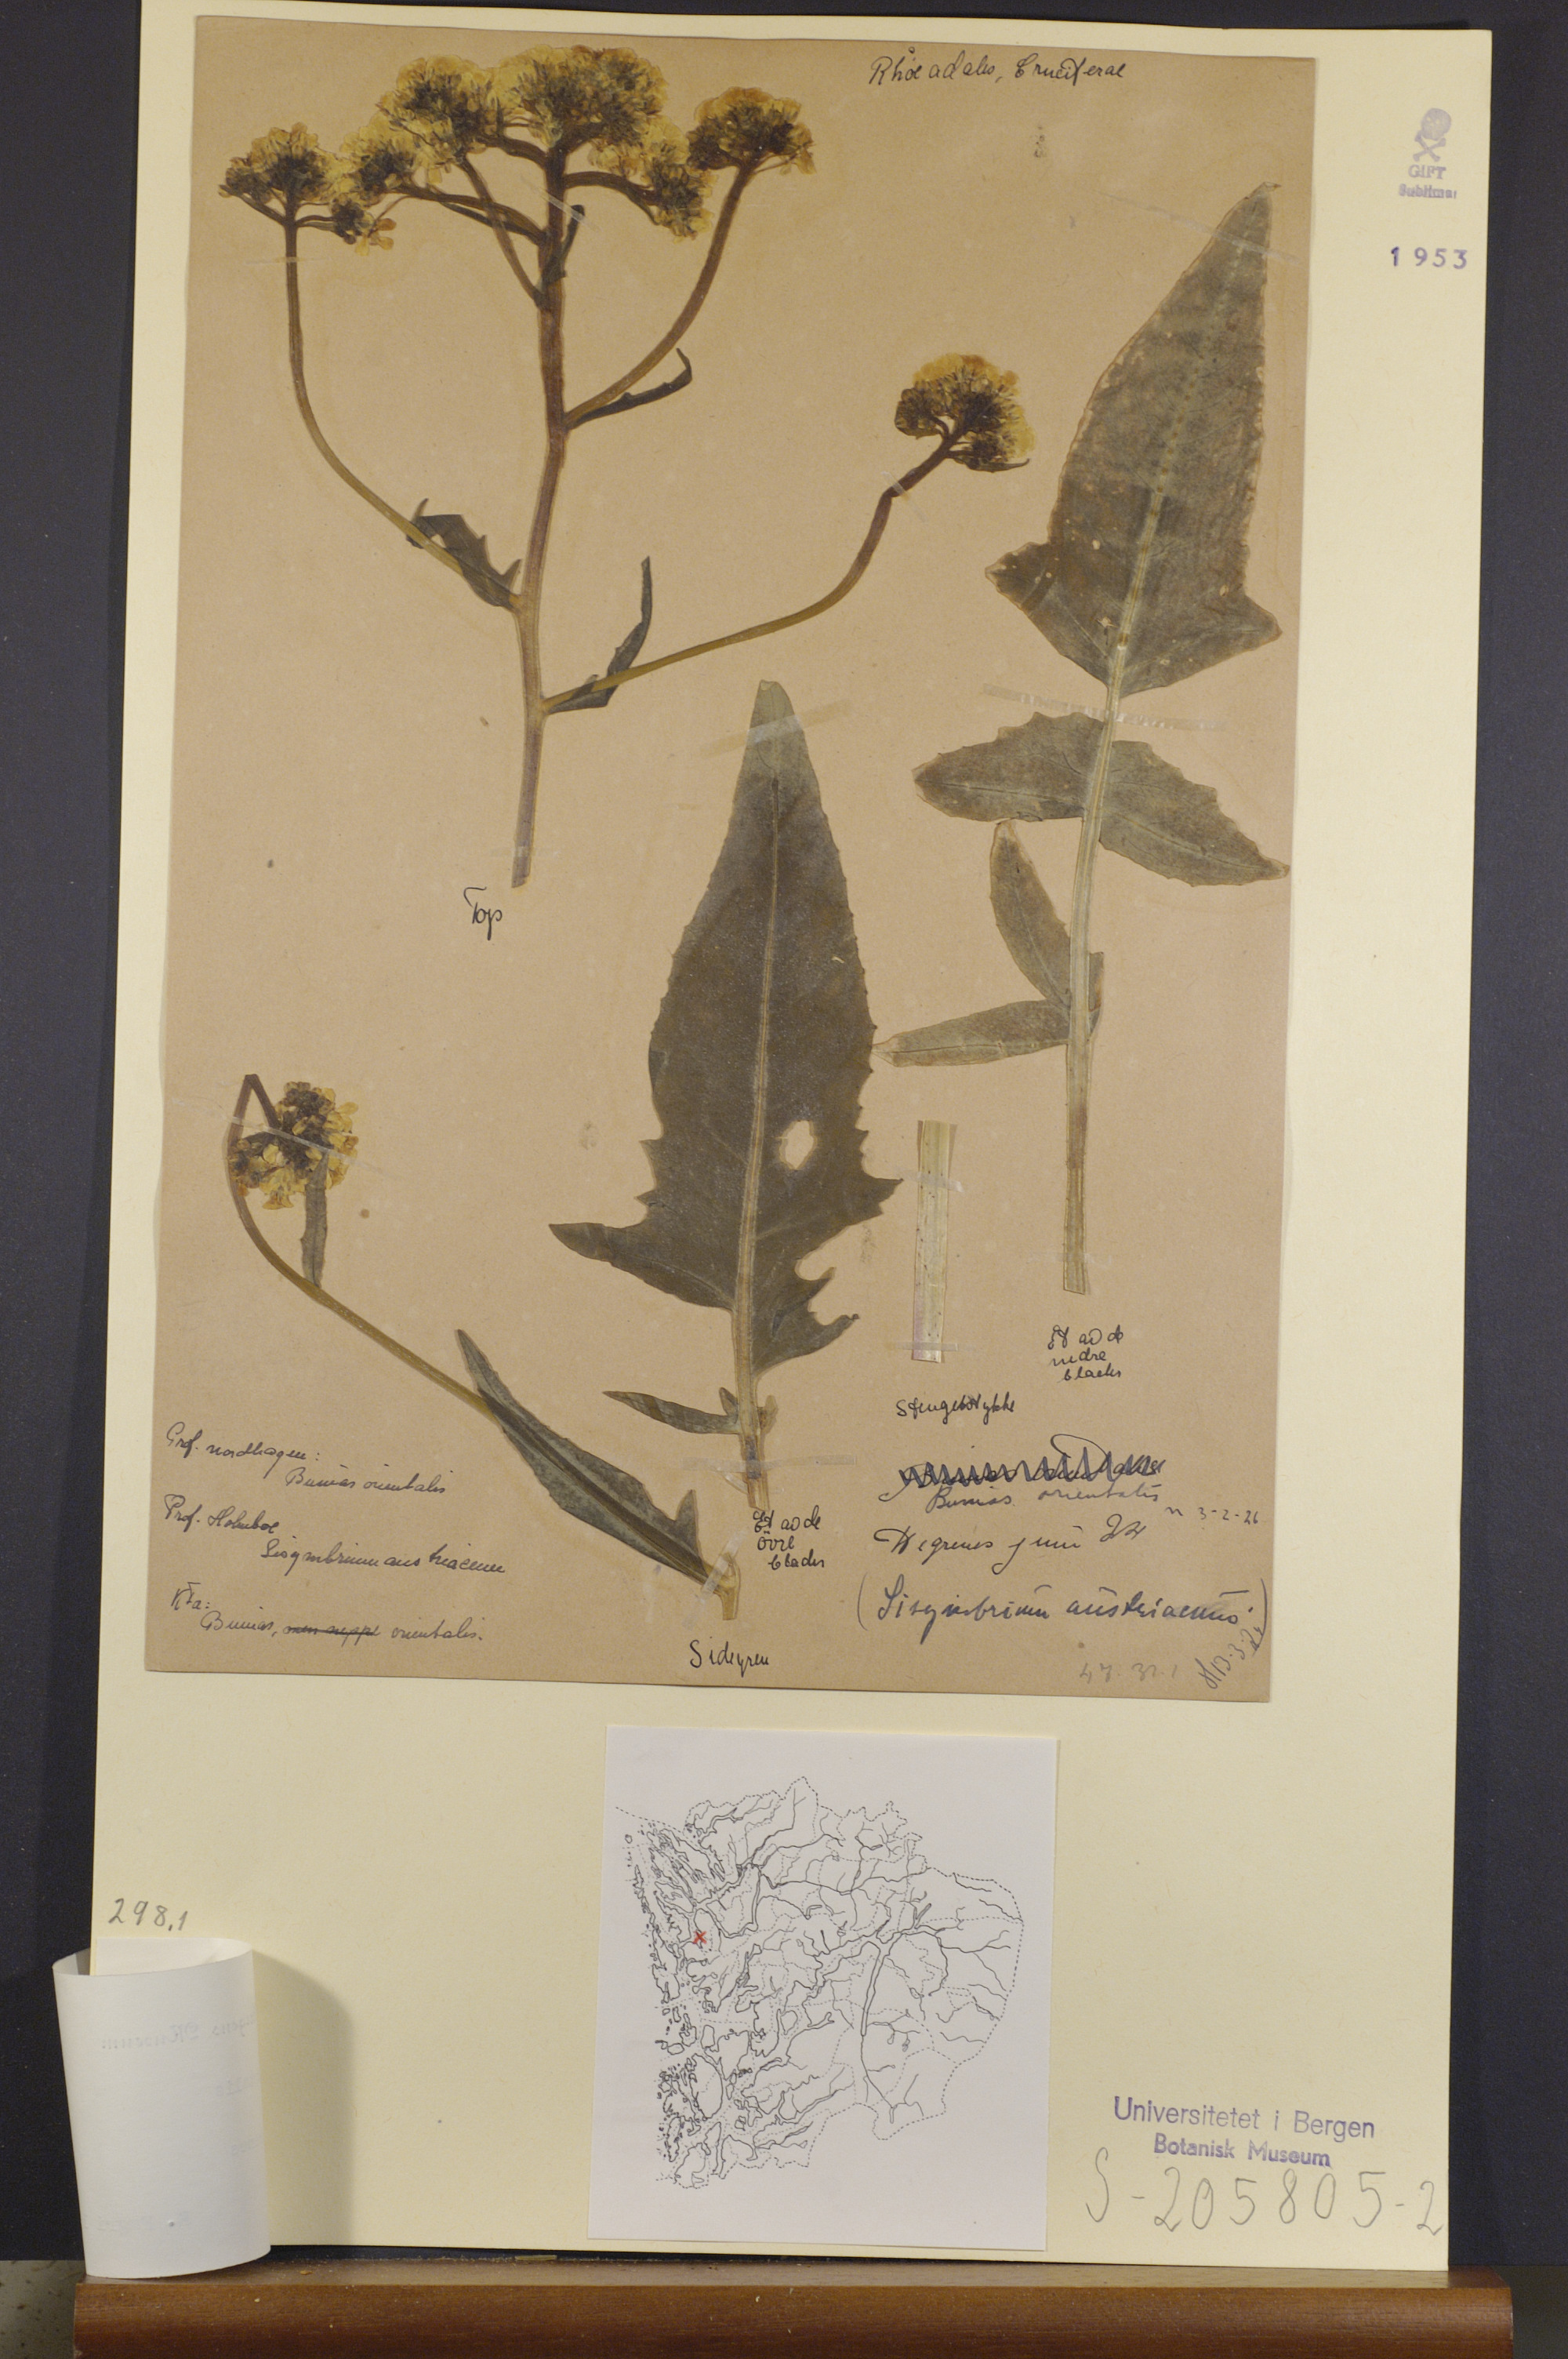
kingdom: Plantae
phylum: Tracheophyta
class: Magnoliopsida
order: Brassicales
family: Brassicaceae
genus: Bunias
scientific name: Bunias orientalis
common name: Warty-cabbage
